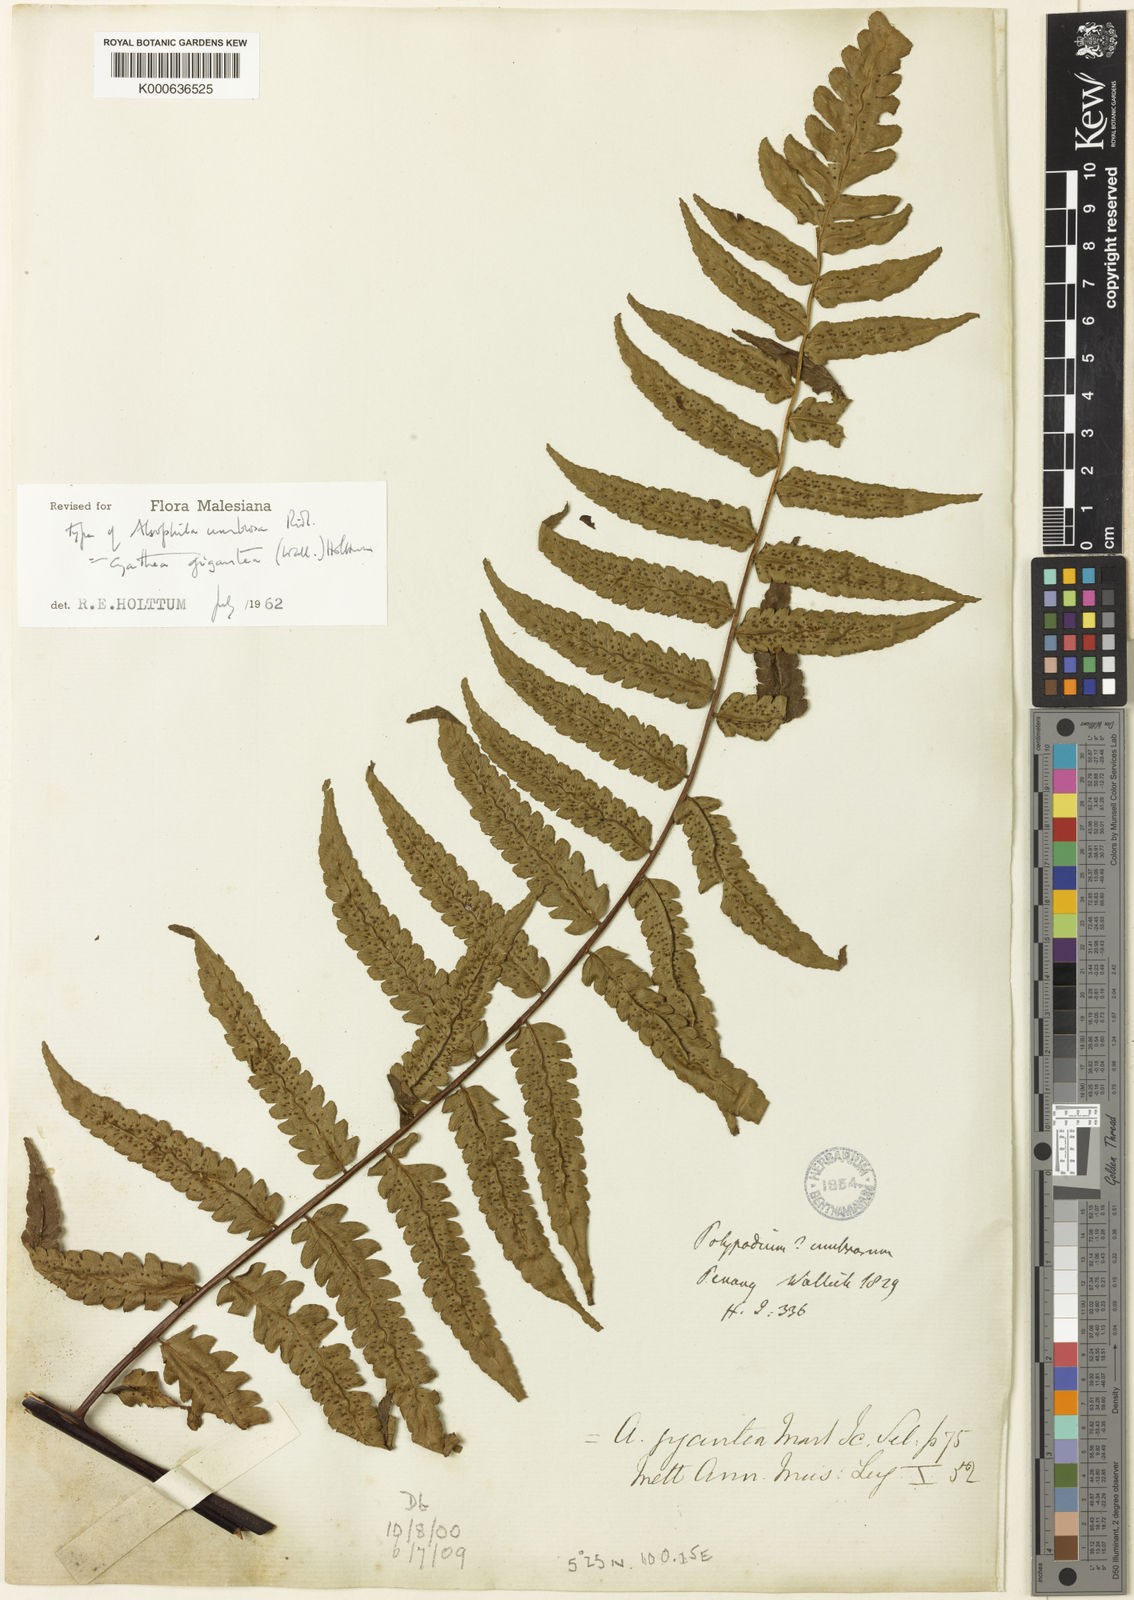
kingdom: Plantae
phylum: Tracheophyta
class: Polypodiopsida
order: Cyatheales
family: Cyatheaceae
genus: Gymnosphaera
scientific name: Gymnosphaera gigantea
